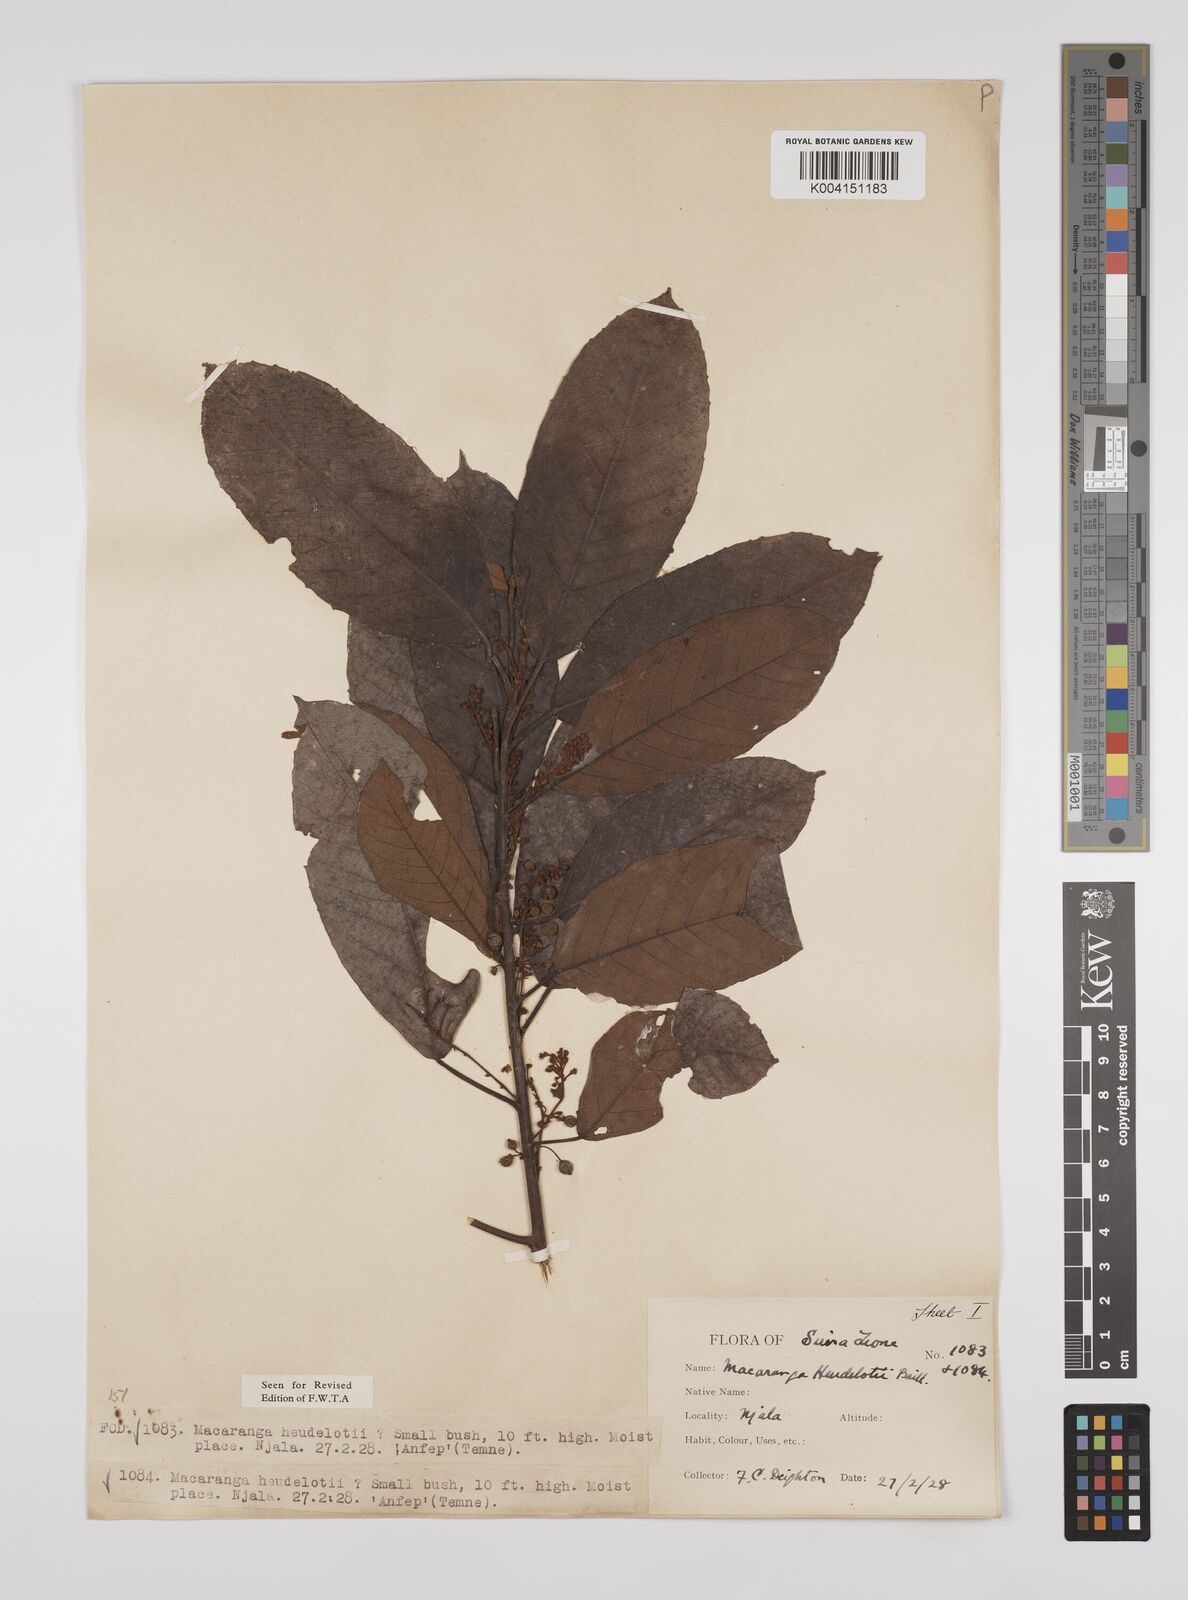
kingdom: Plantae
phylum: Tracheophyta
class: Magnoliopsida
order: Malpighiales
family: Euphorbiaceae
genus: Macaranga
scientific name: Macaranga heudelotii
